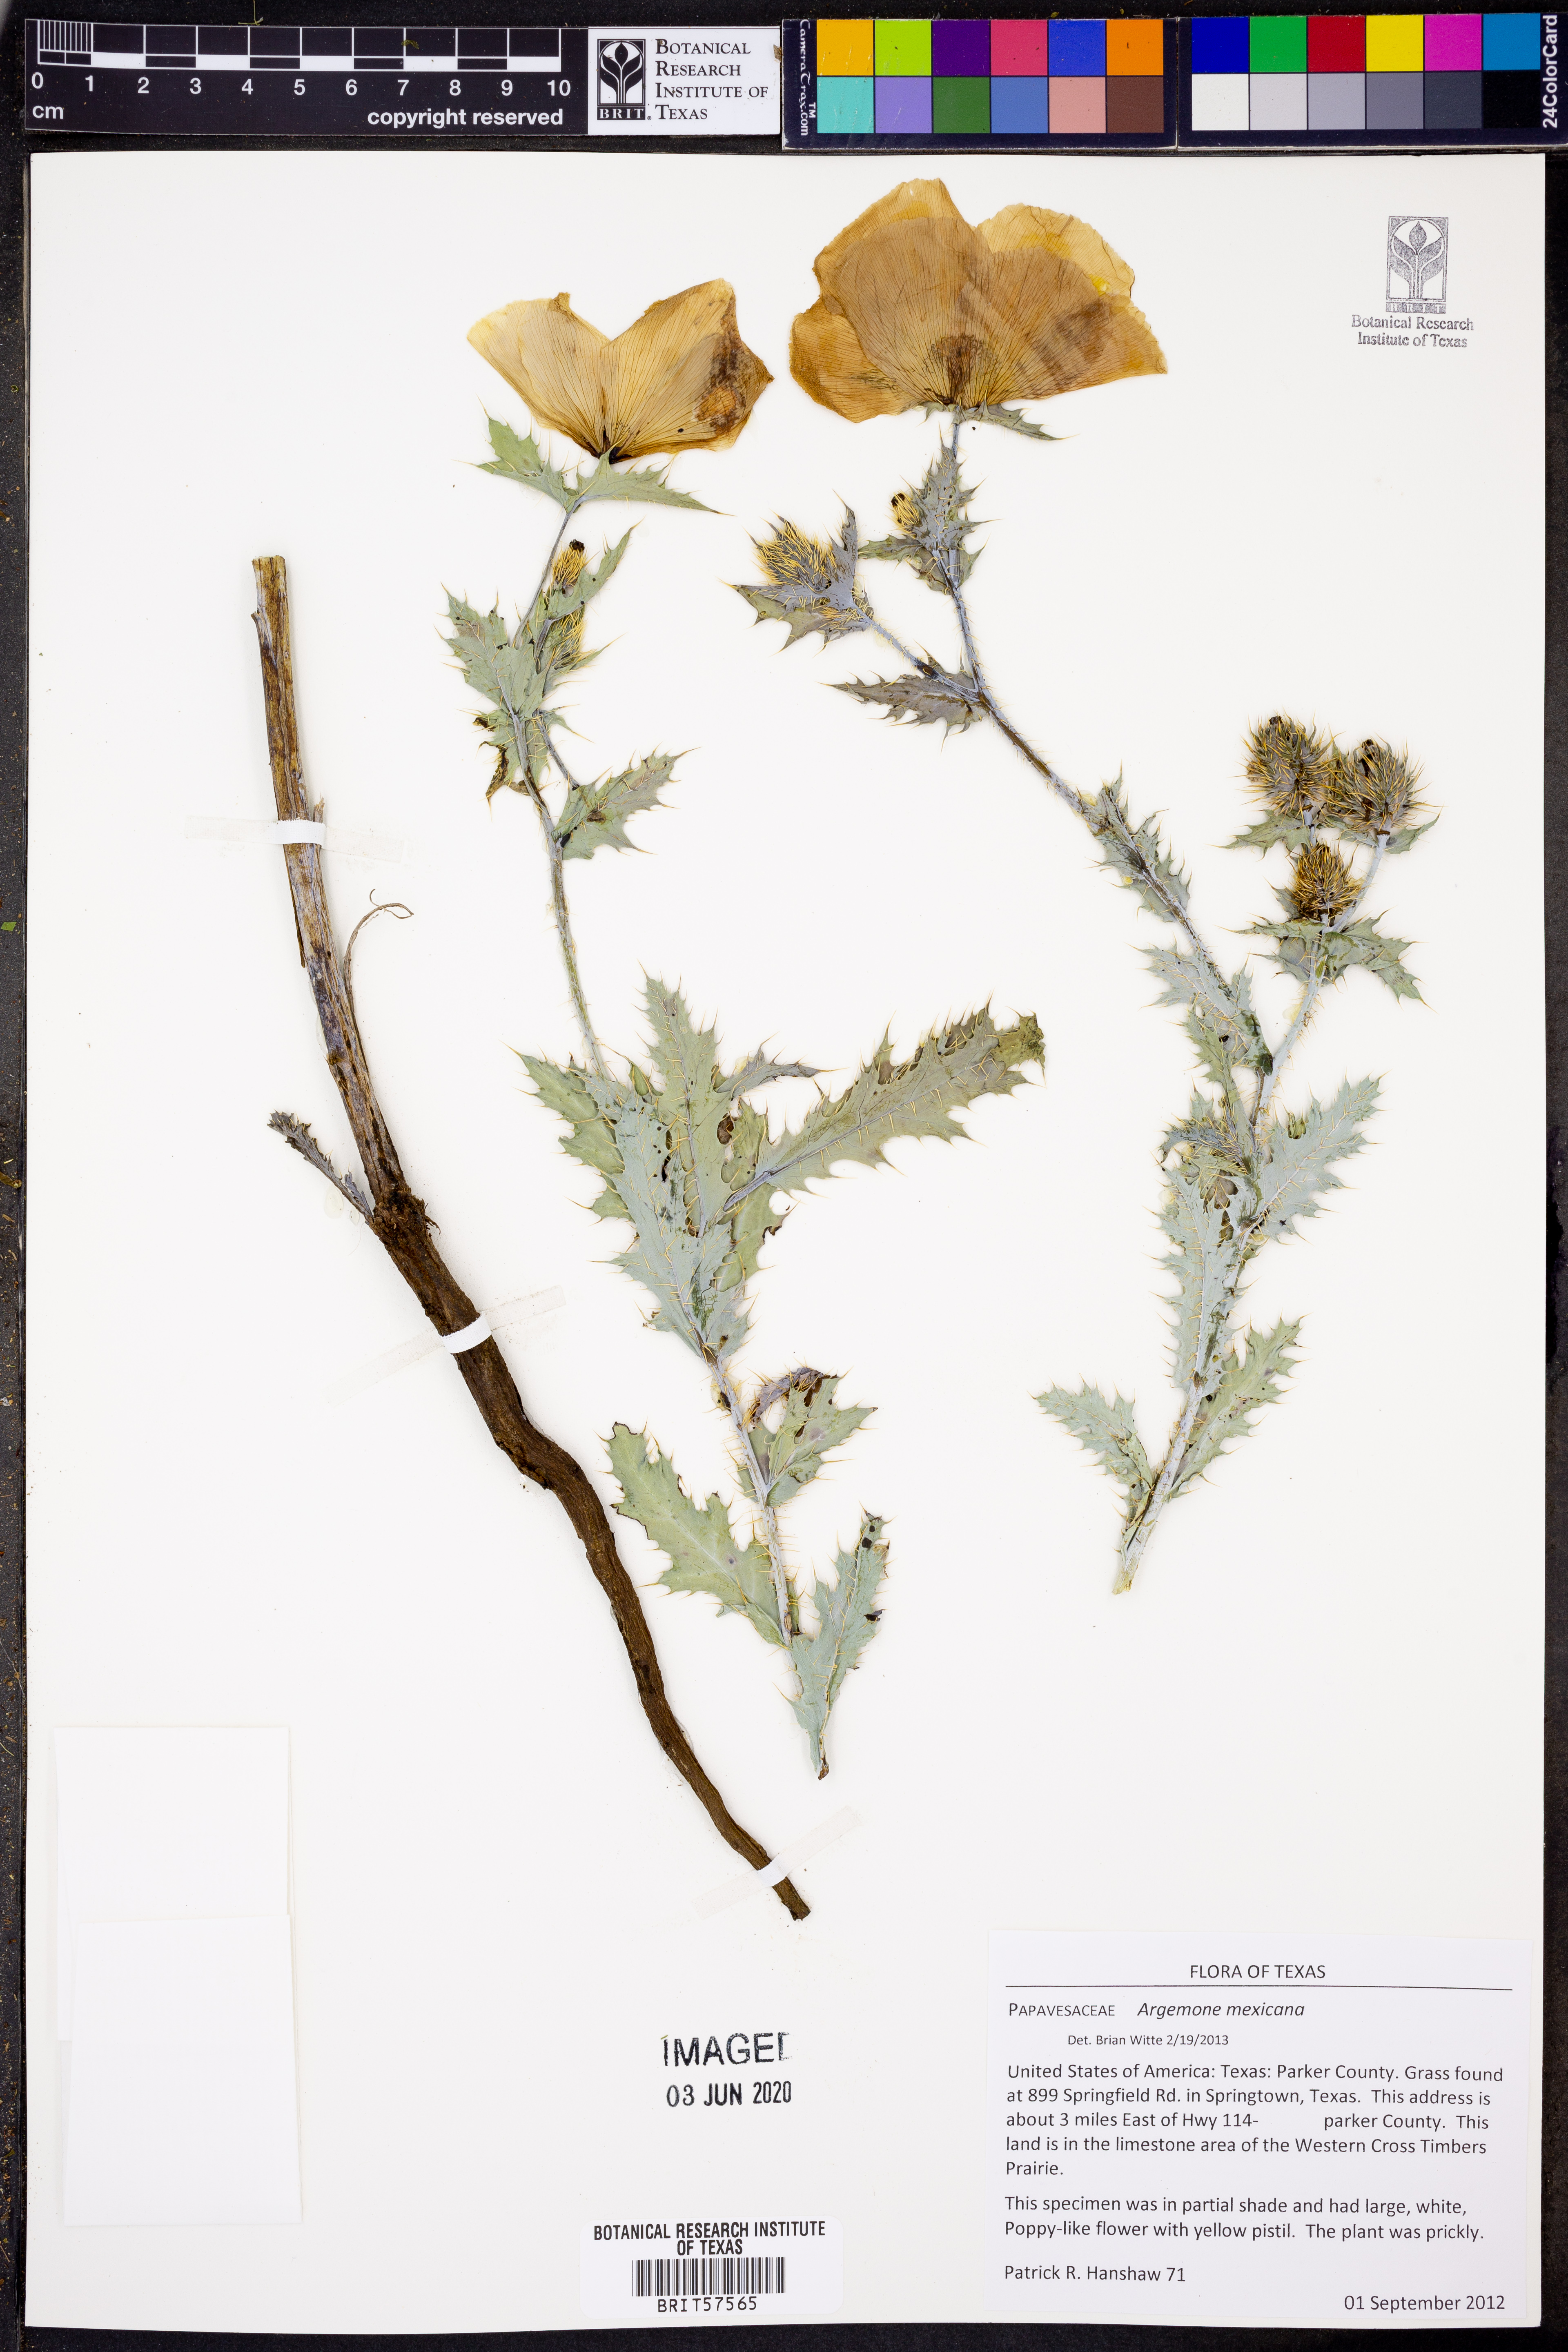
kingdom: Plantae
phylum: Tracheophyta
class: Magnoliopsida
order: Ranunculales
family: Papaveraceae
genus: Argemone
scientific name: Argemone mexicana
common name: Mexican poppy
